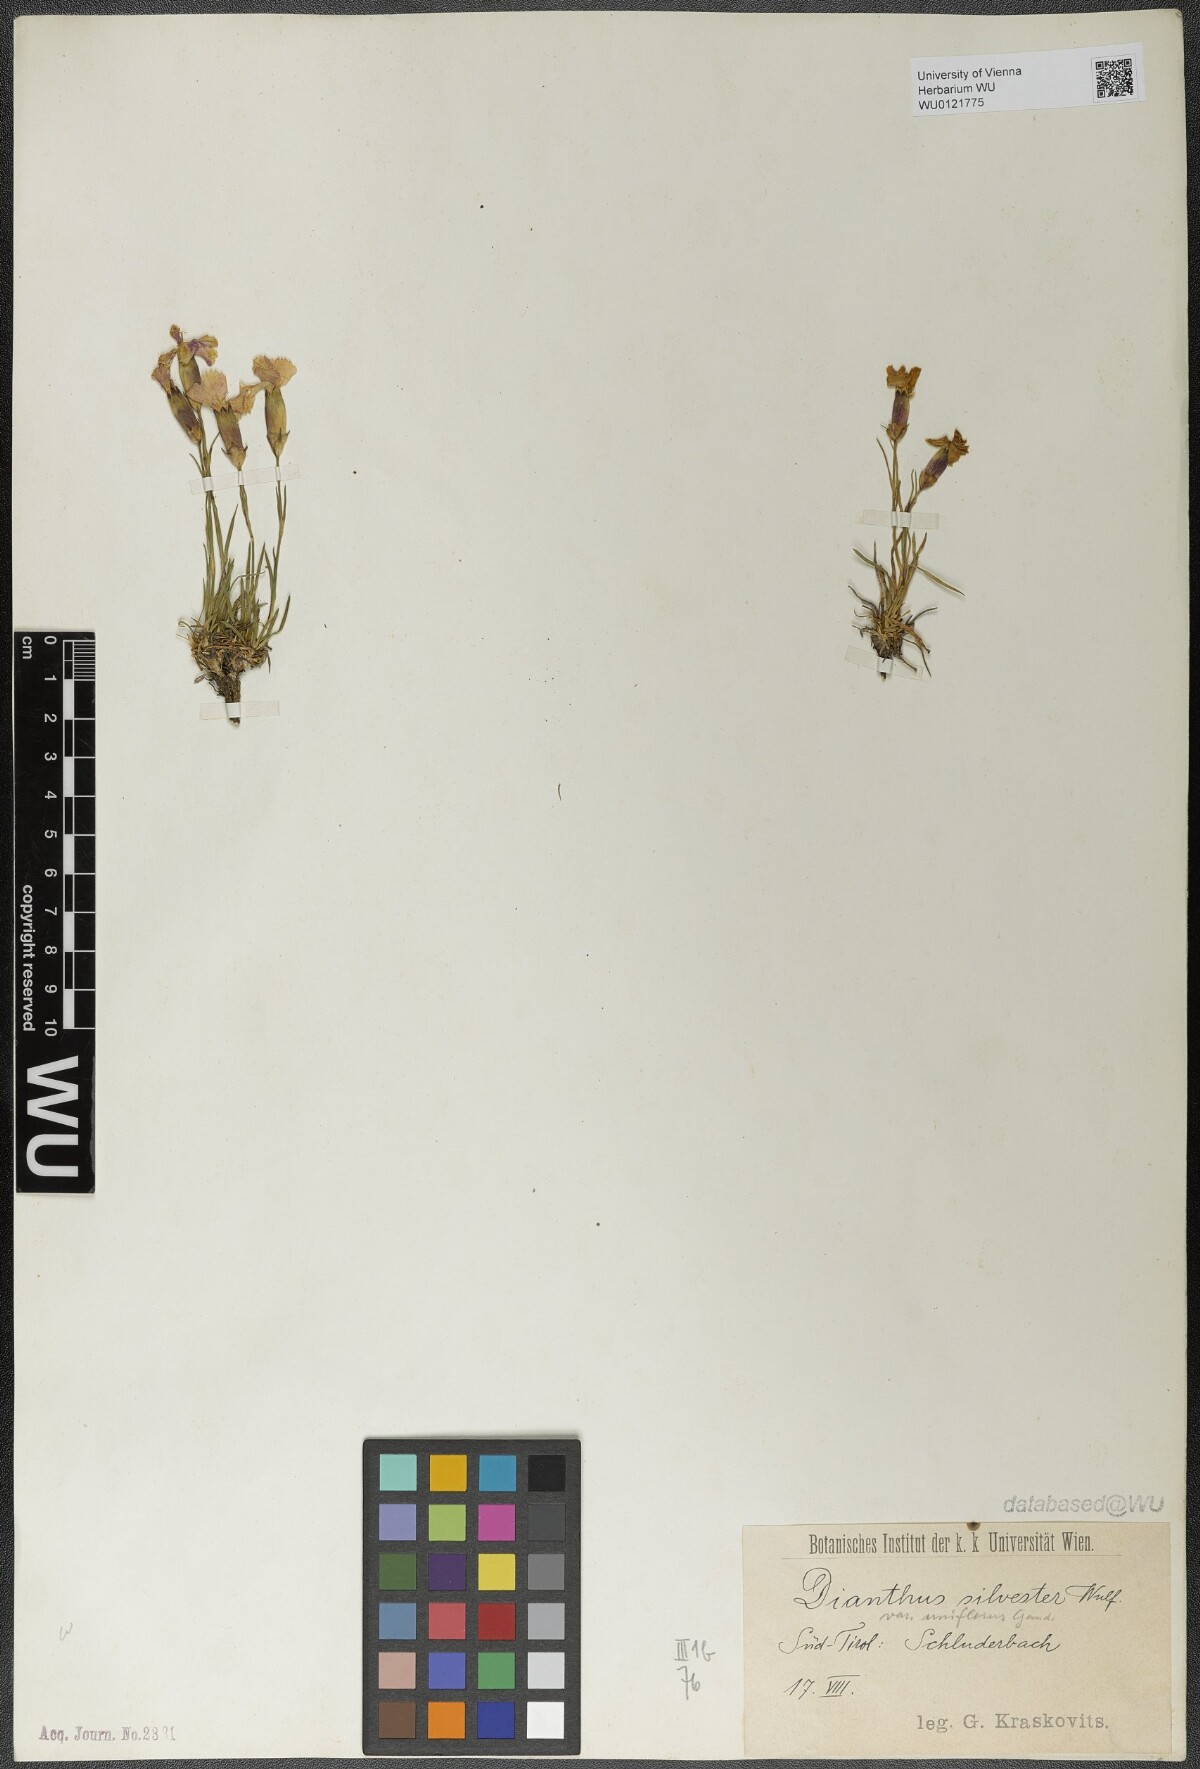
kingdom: Plantae
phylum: Tracheophyta
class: Magnoliopsida
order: Caryophyllales
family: Caryophyllaceae
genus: Dianthus
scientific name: Dianthus sylvestris
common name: Wood pink
